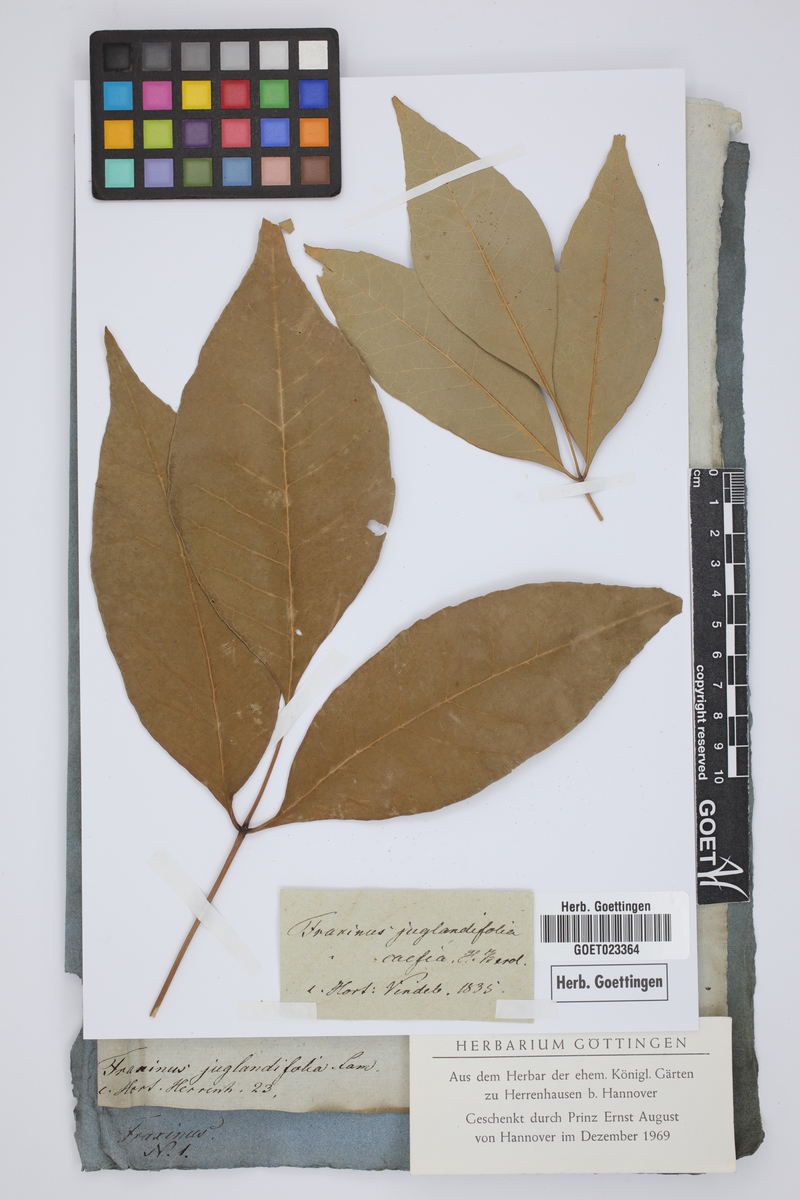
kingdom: Plantae
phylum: Tracheophyta
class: Magnoliopsida
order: Lamiales
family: Oleaceae
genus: Fraxinus
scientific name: Fraxinus americana
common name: White ash
